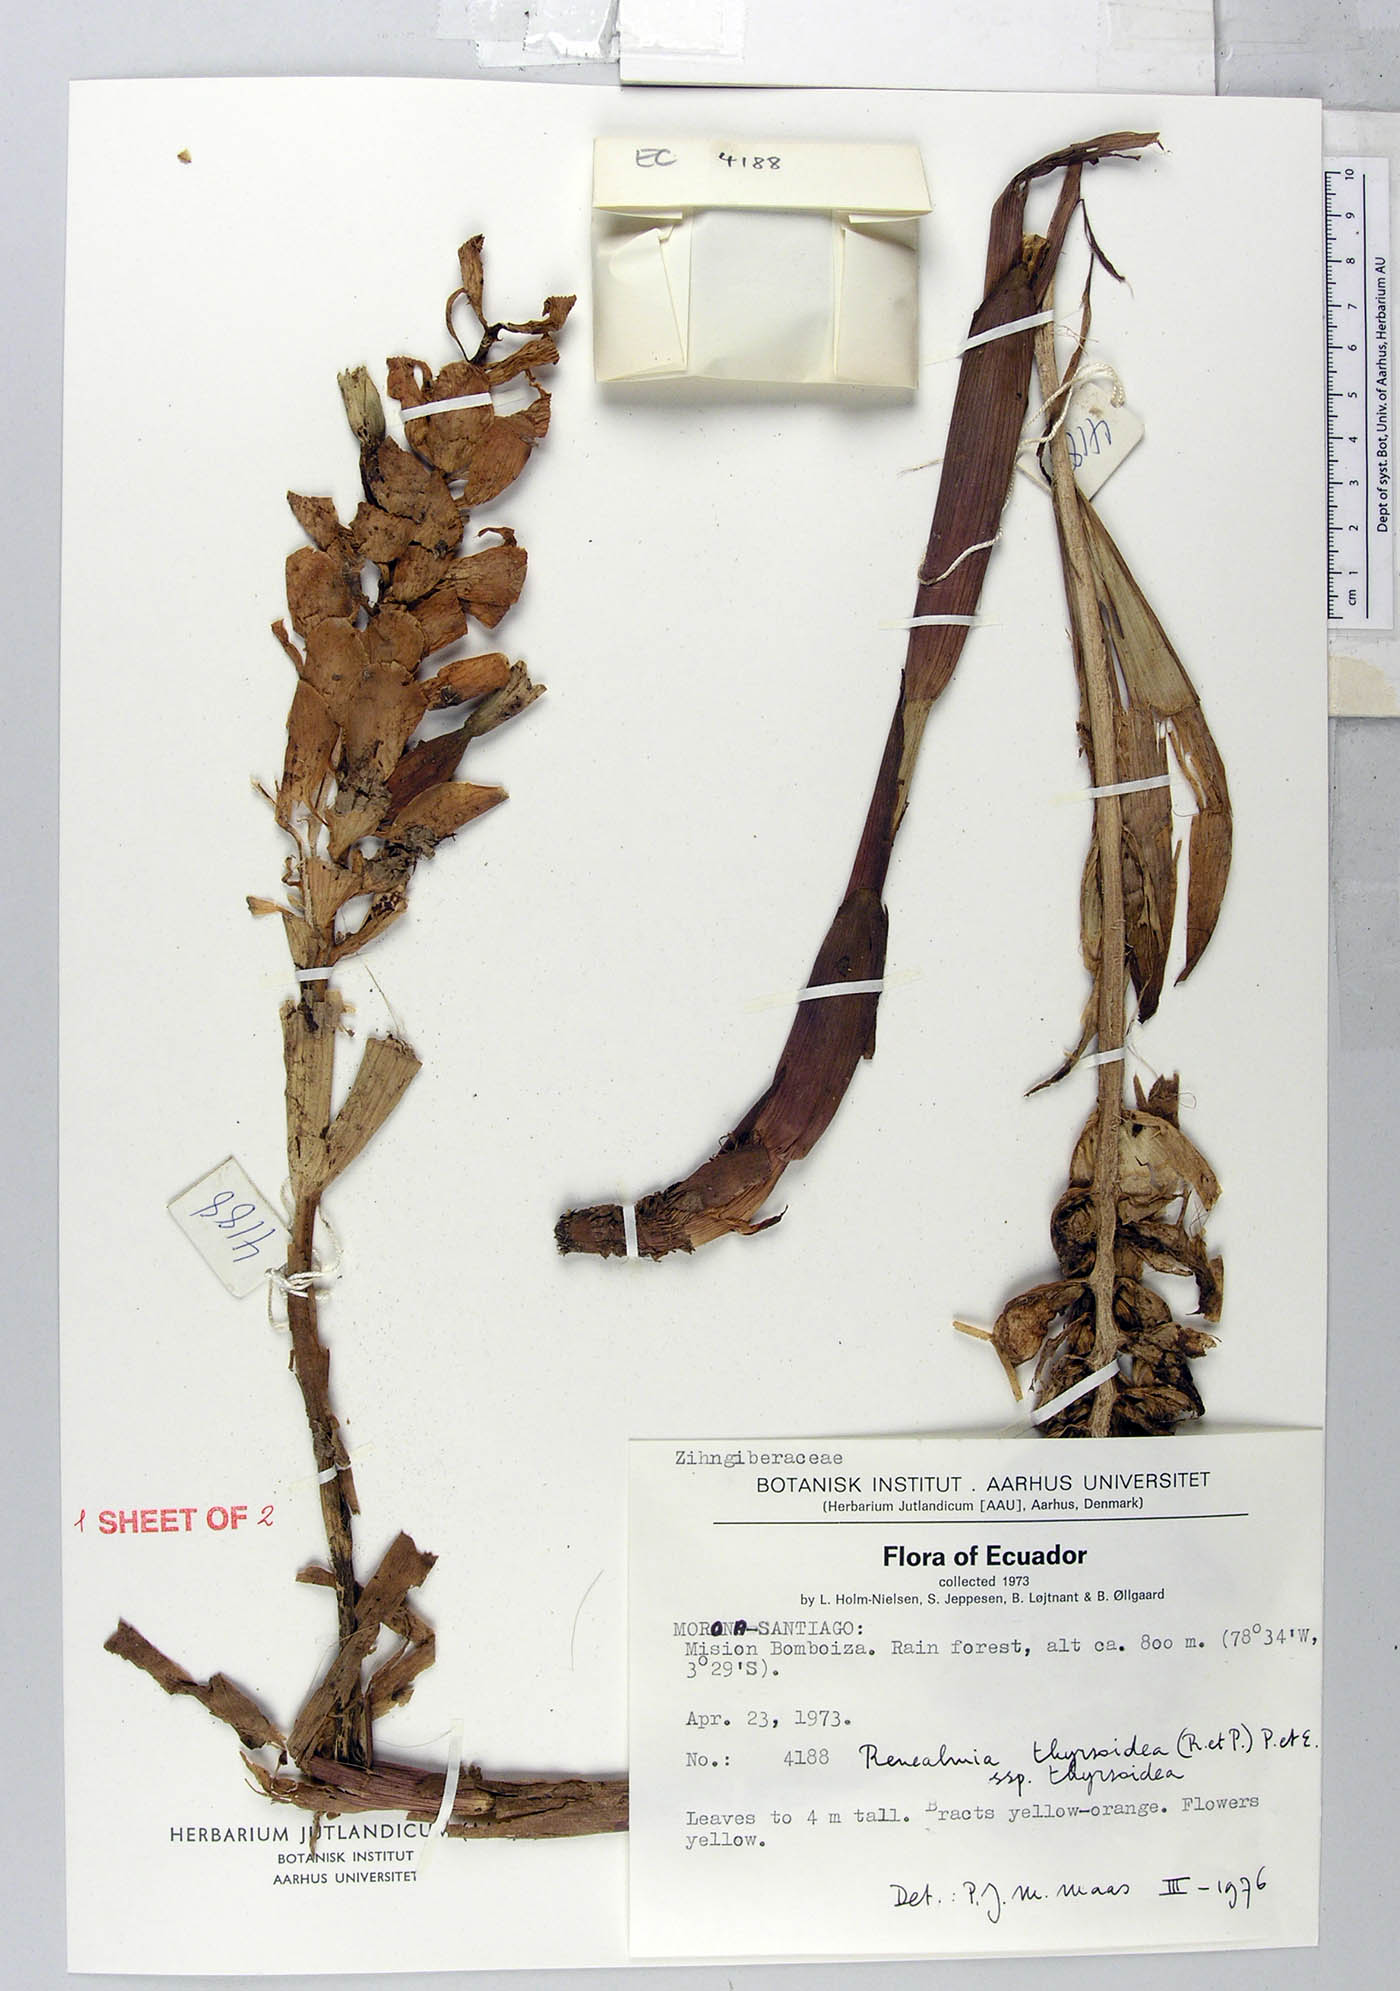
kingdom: Plantae
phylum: Tracheophyta
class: Liliopsida
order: Zingiberales
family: Zingiberaceae
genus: Renealmia
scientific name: Renealmia thyrsoidea
